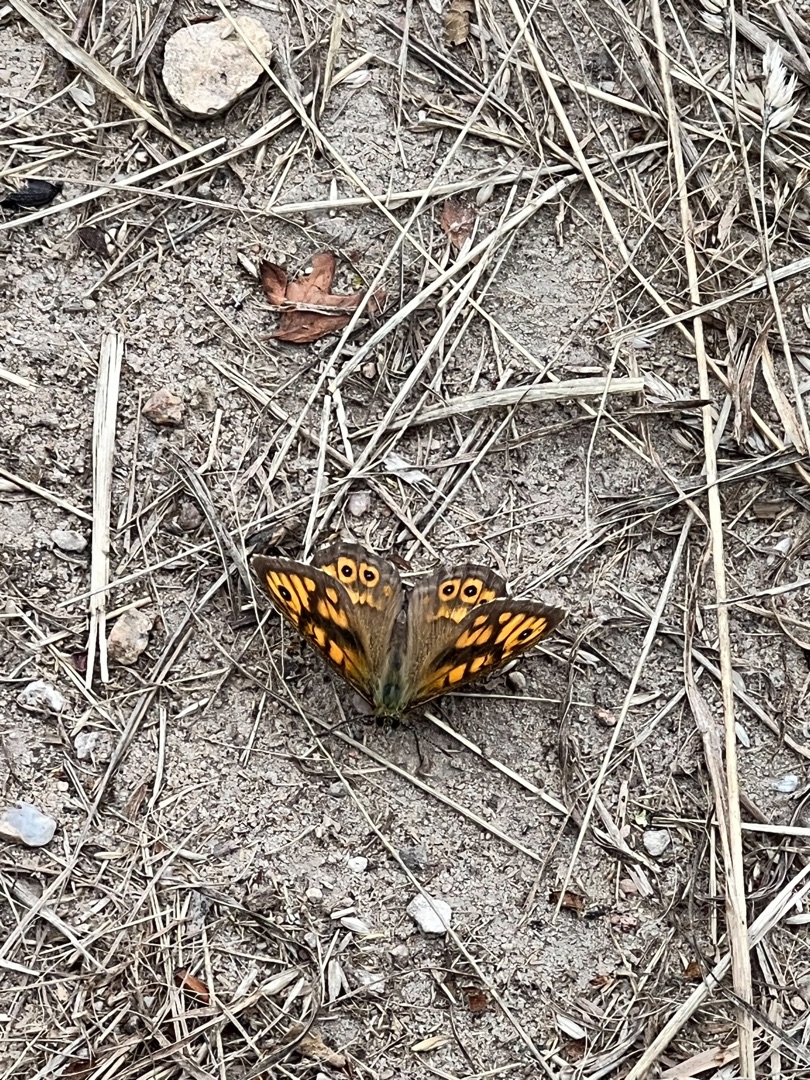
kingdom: Animalia
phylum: Arthropoda
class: Insecta
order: Lepidoptera
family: Nymphalidae
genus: Pararge
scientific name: Pararge Lasiommata megera
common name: Vejrandøje
